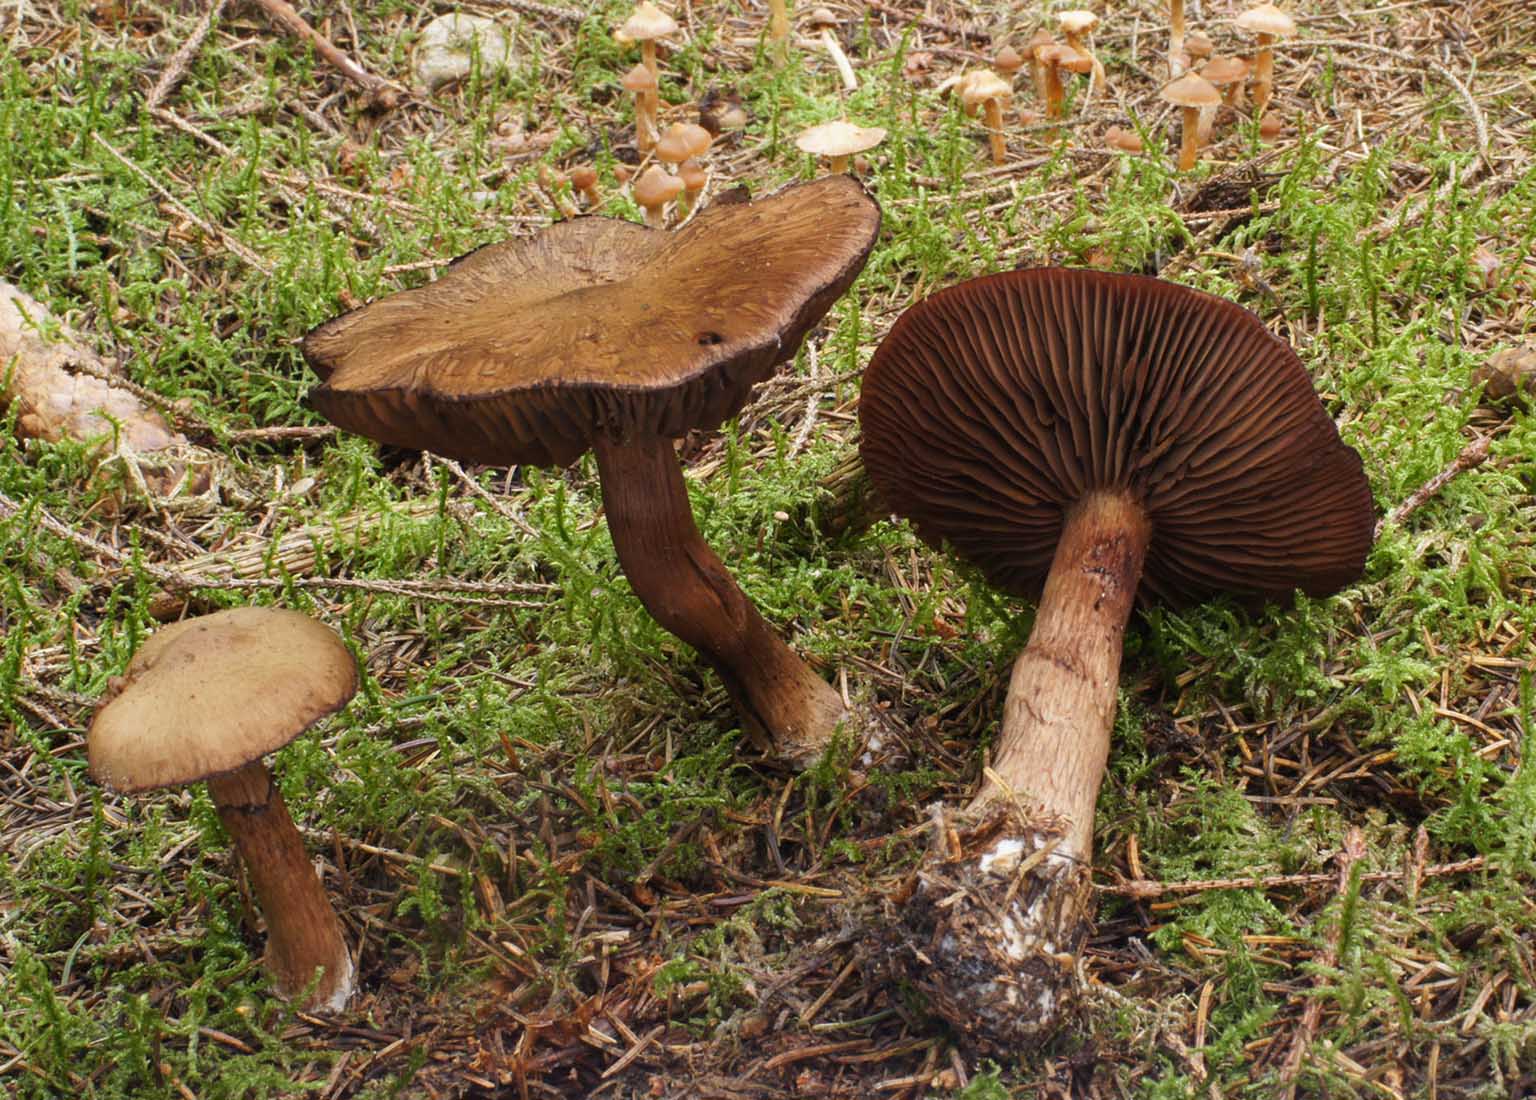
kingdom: Fungi
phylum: Basidiomycota
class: Agaricomycetes
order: Agaricales
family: Cortinariaceae
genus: Cortinarius
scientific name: Cortinarius brunneus
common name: sortbrun slørhat
